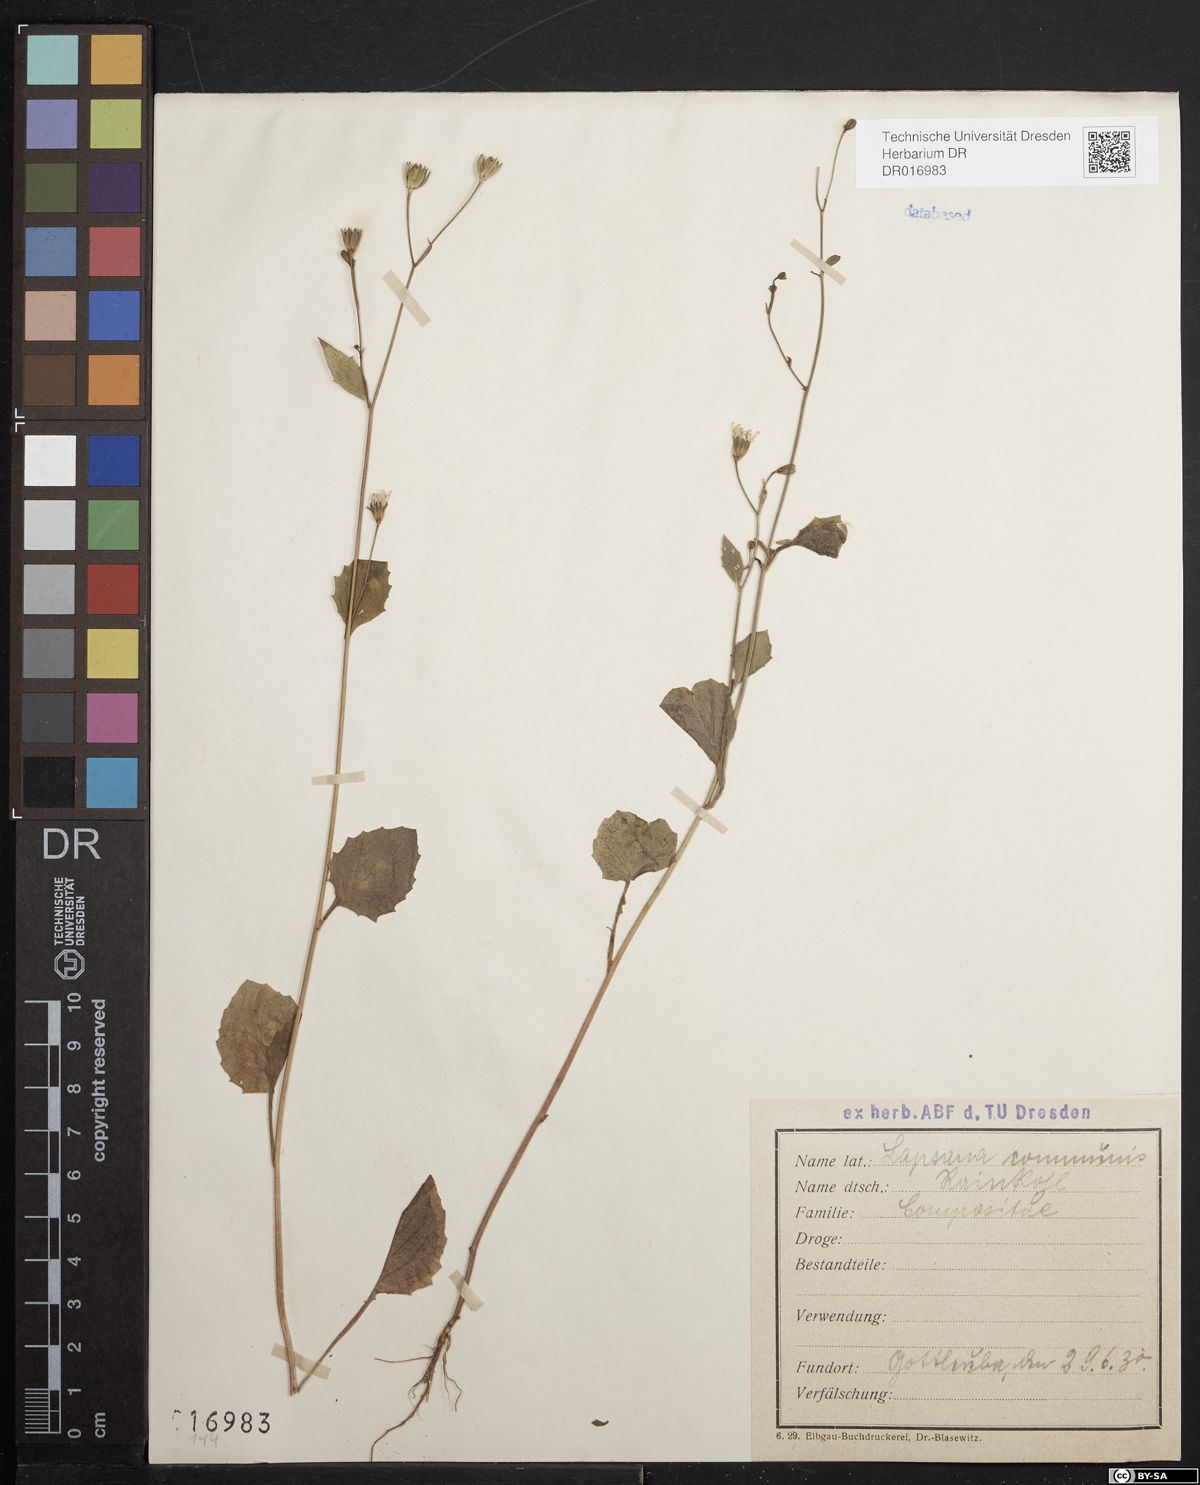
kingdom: Plantae
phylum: Tracheophyta
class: Magnoliopsida
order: Asterales
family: Asteraceae
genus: Lapsana
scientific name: Lapsana communis
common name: Nipplewort
